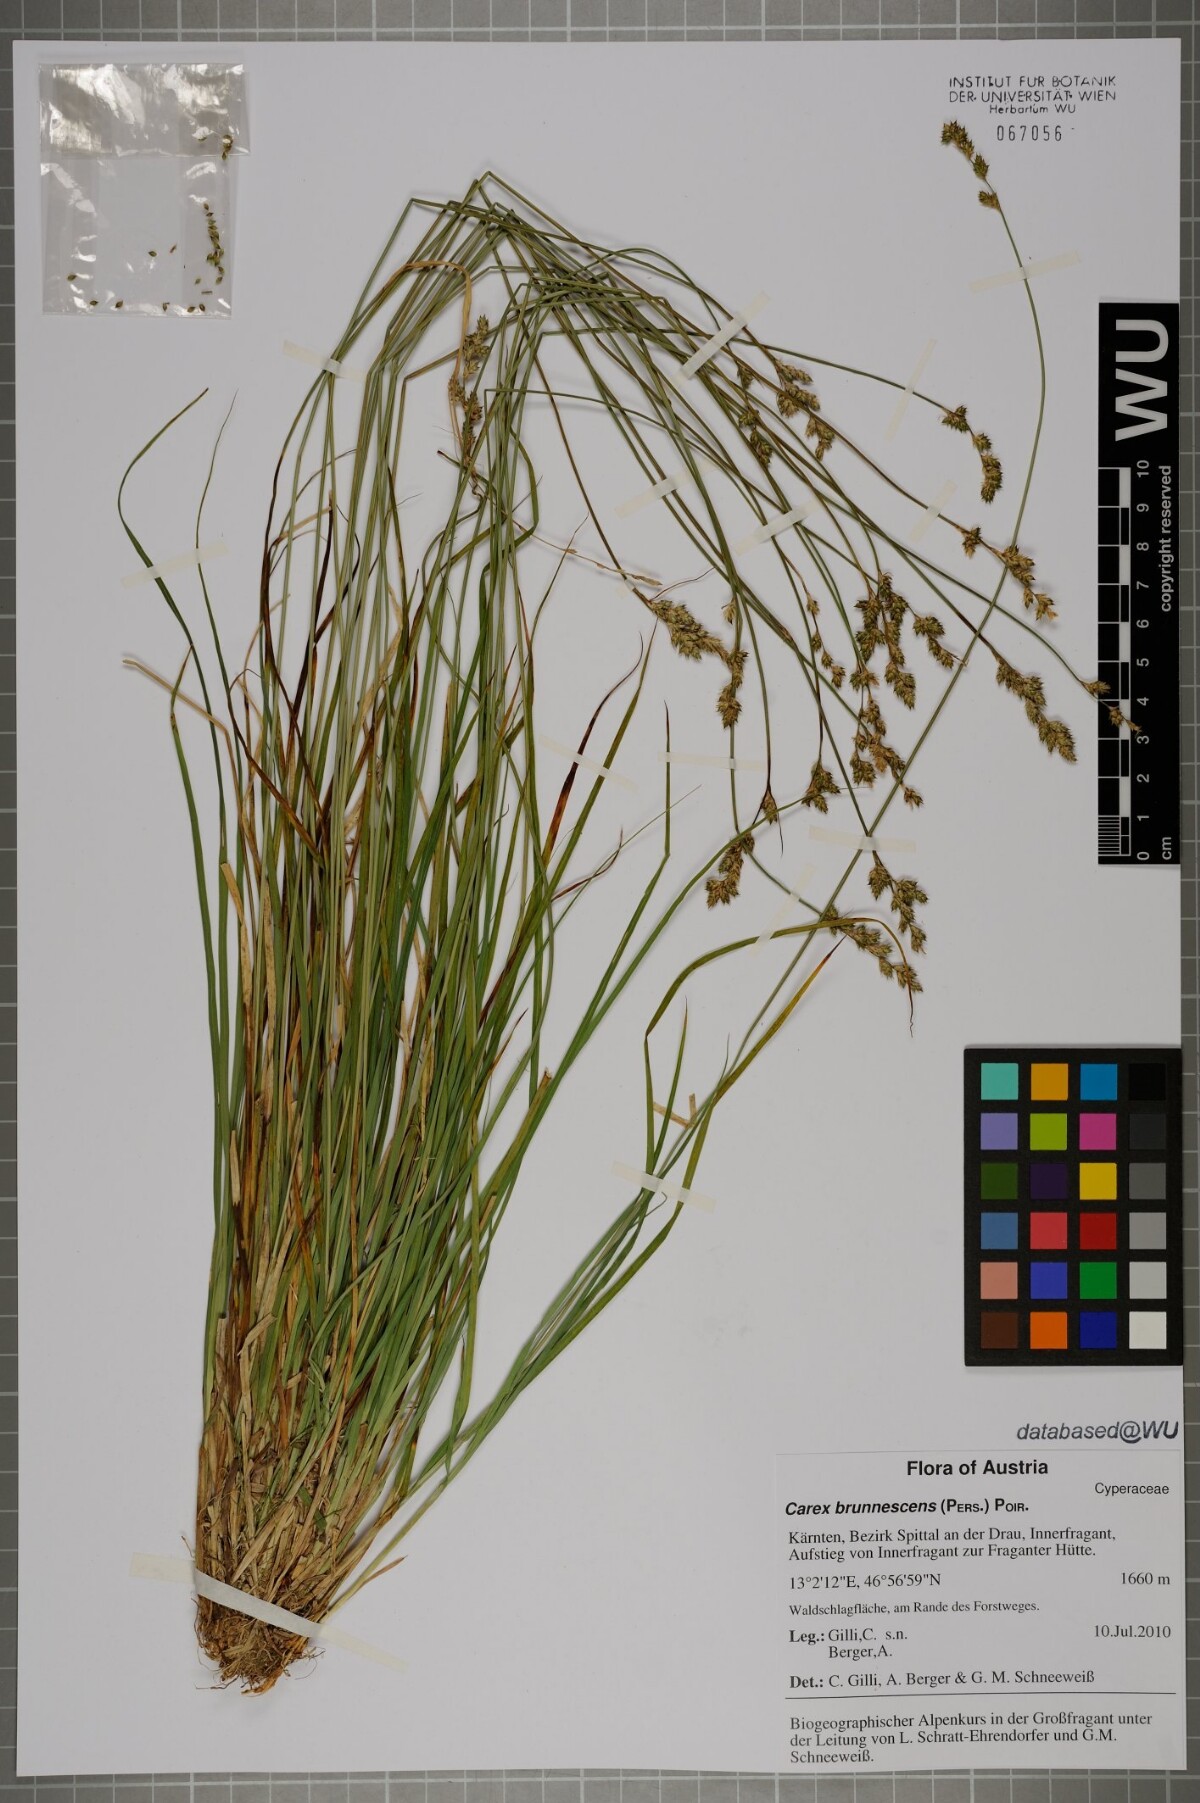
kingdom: Plantae
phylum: Tracheophyta
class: Liliopsida
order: Poales
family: Cyperaceae
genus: Carex
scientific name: Carex brunnescens
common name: Brown sedge
